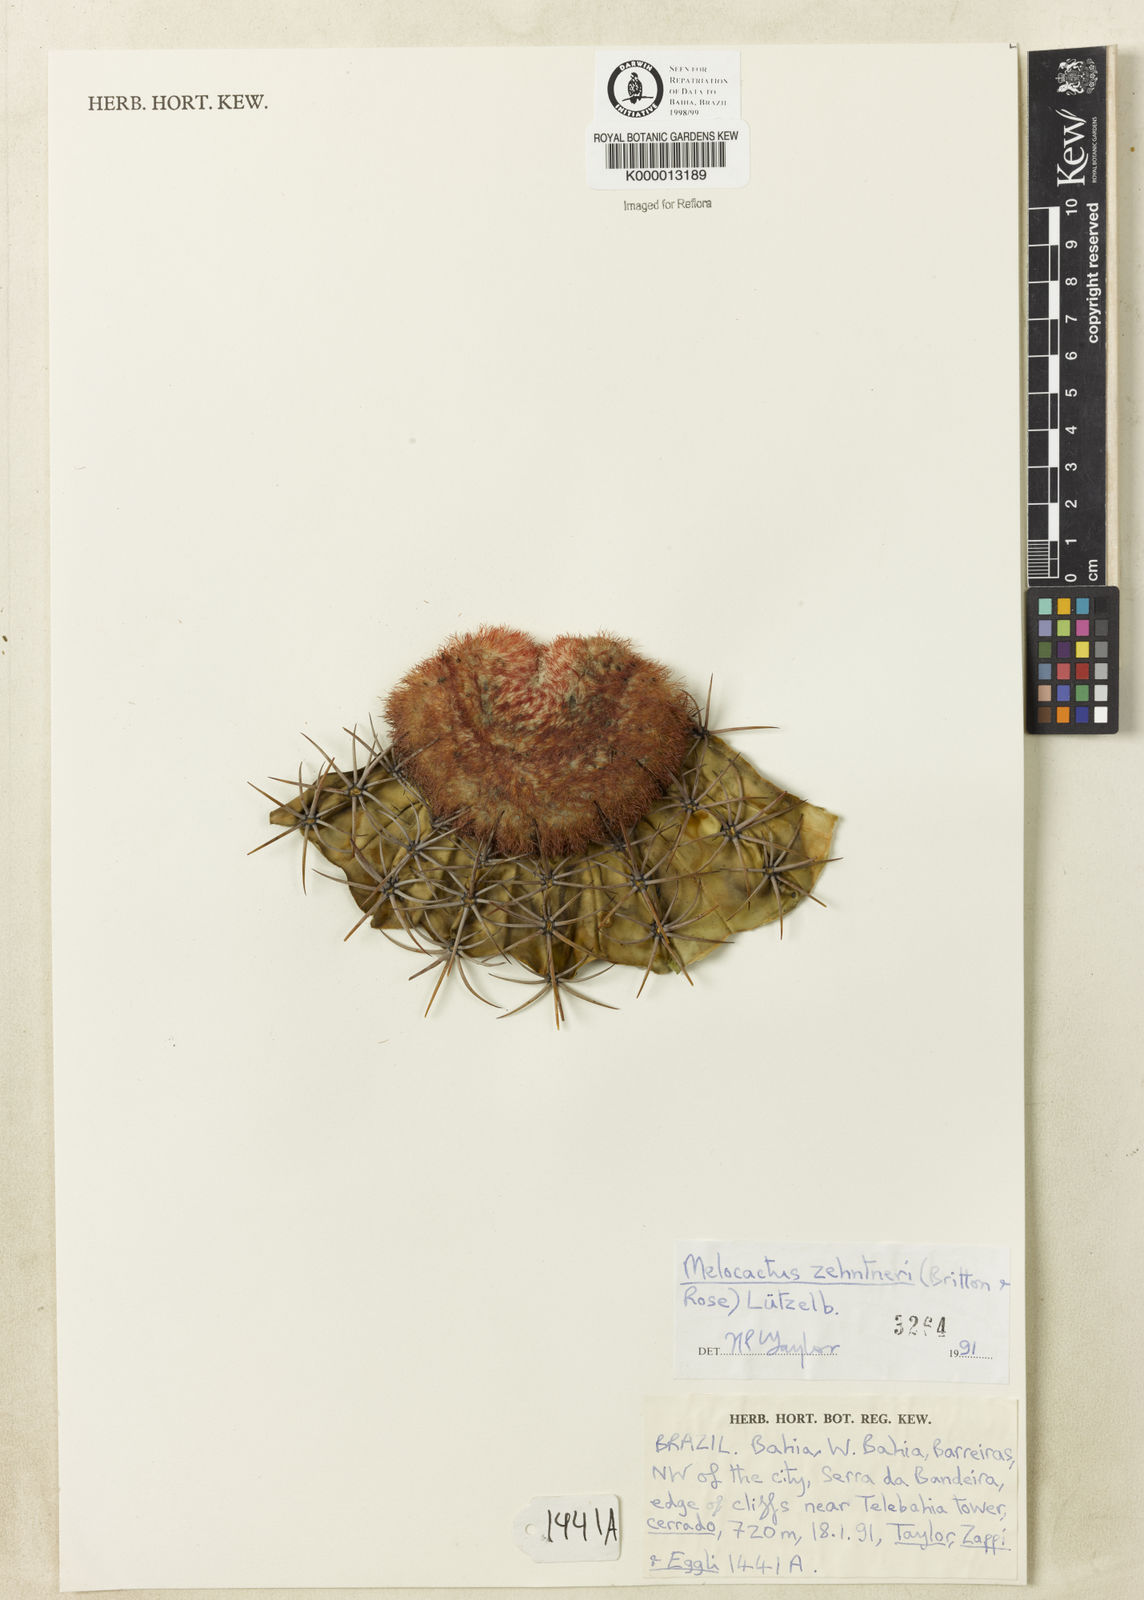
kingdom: Plantae
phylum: Tracheophyta
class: Magnoliopsida
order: Caryophyllales
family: Cactaceae
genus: Melocactus
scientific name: Melocactus zehntneri
